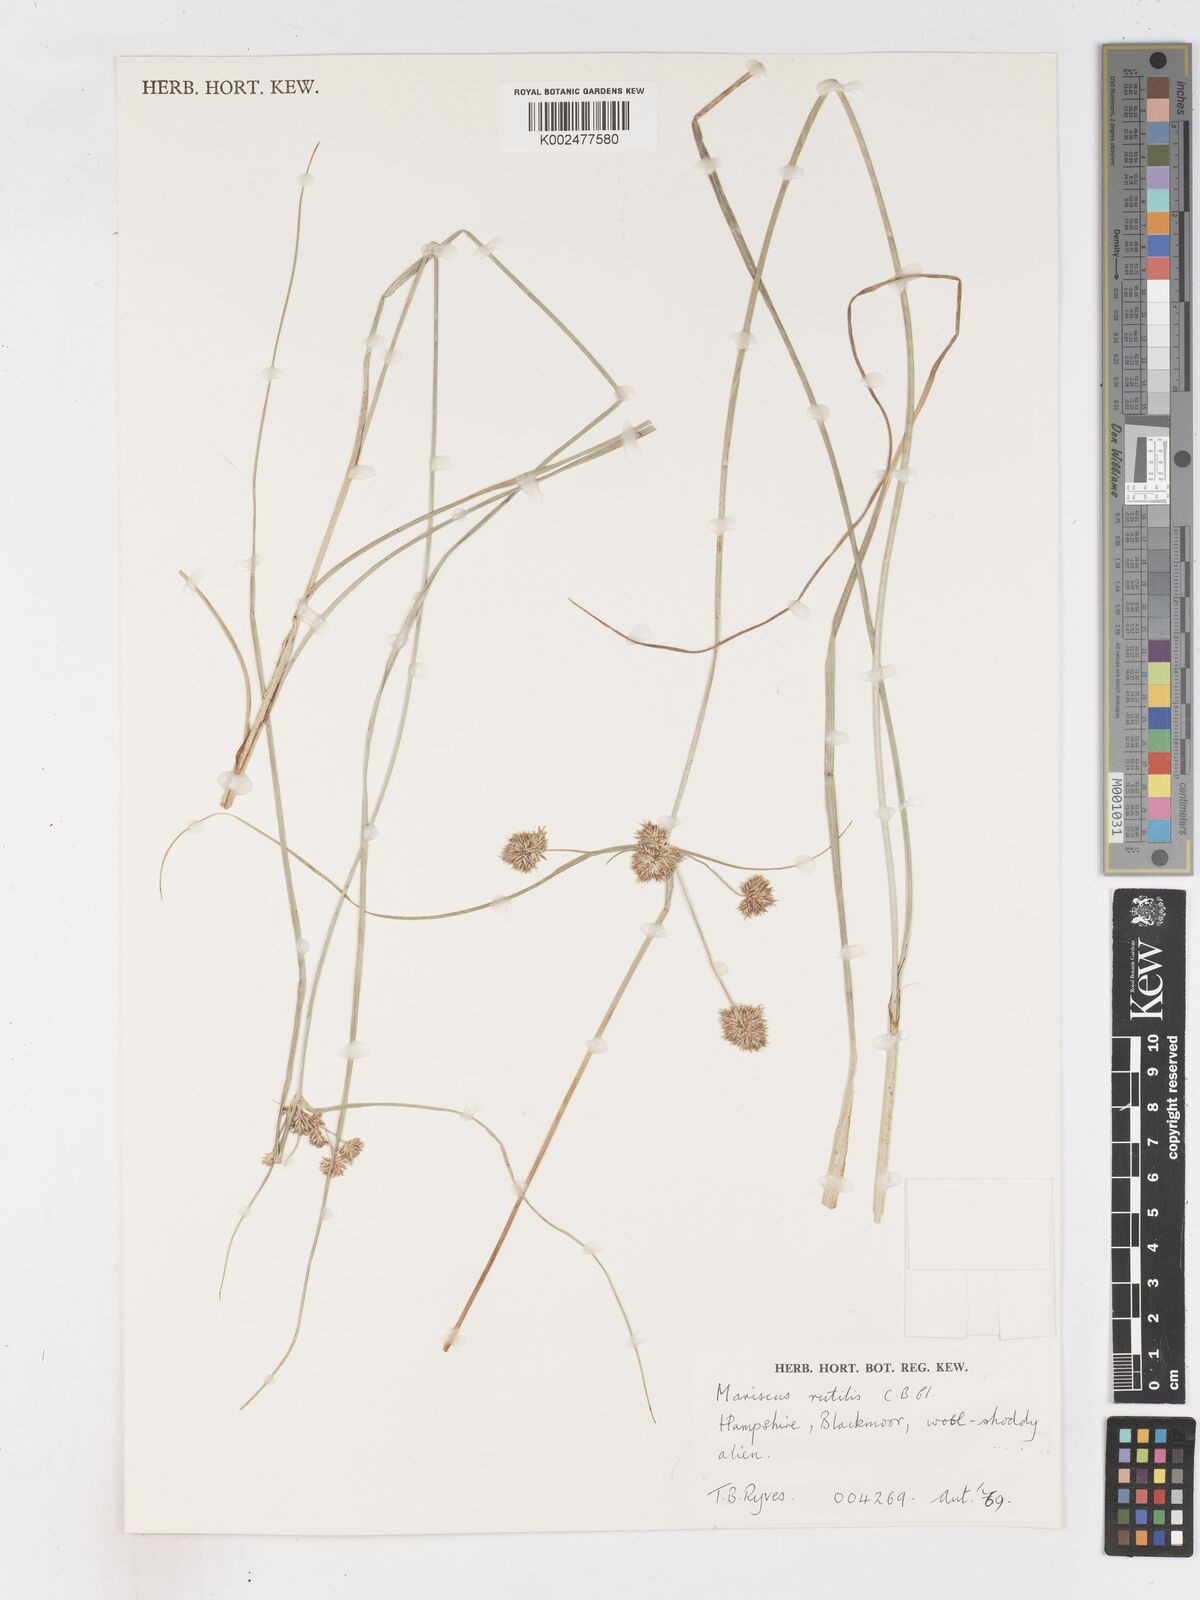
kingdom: Plantae
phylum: Tracheophyta
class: Liliopsida
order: Poales
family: Cyperaceae
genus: Cyperus
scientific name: Cyperus lhotskyanus
